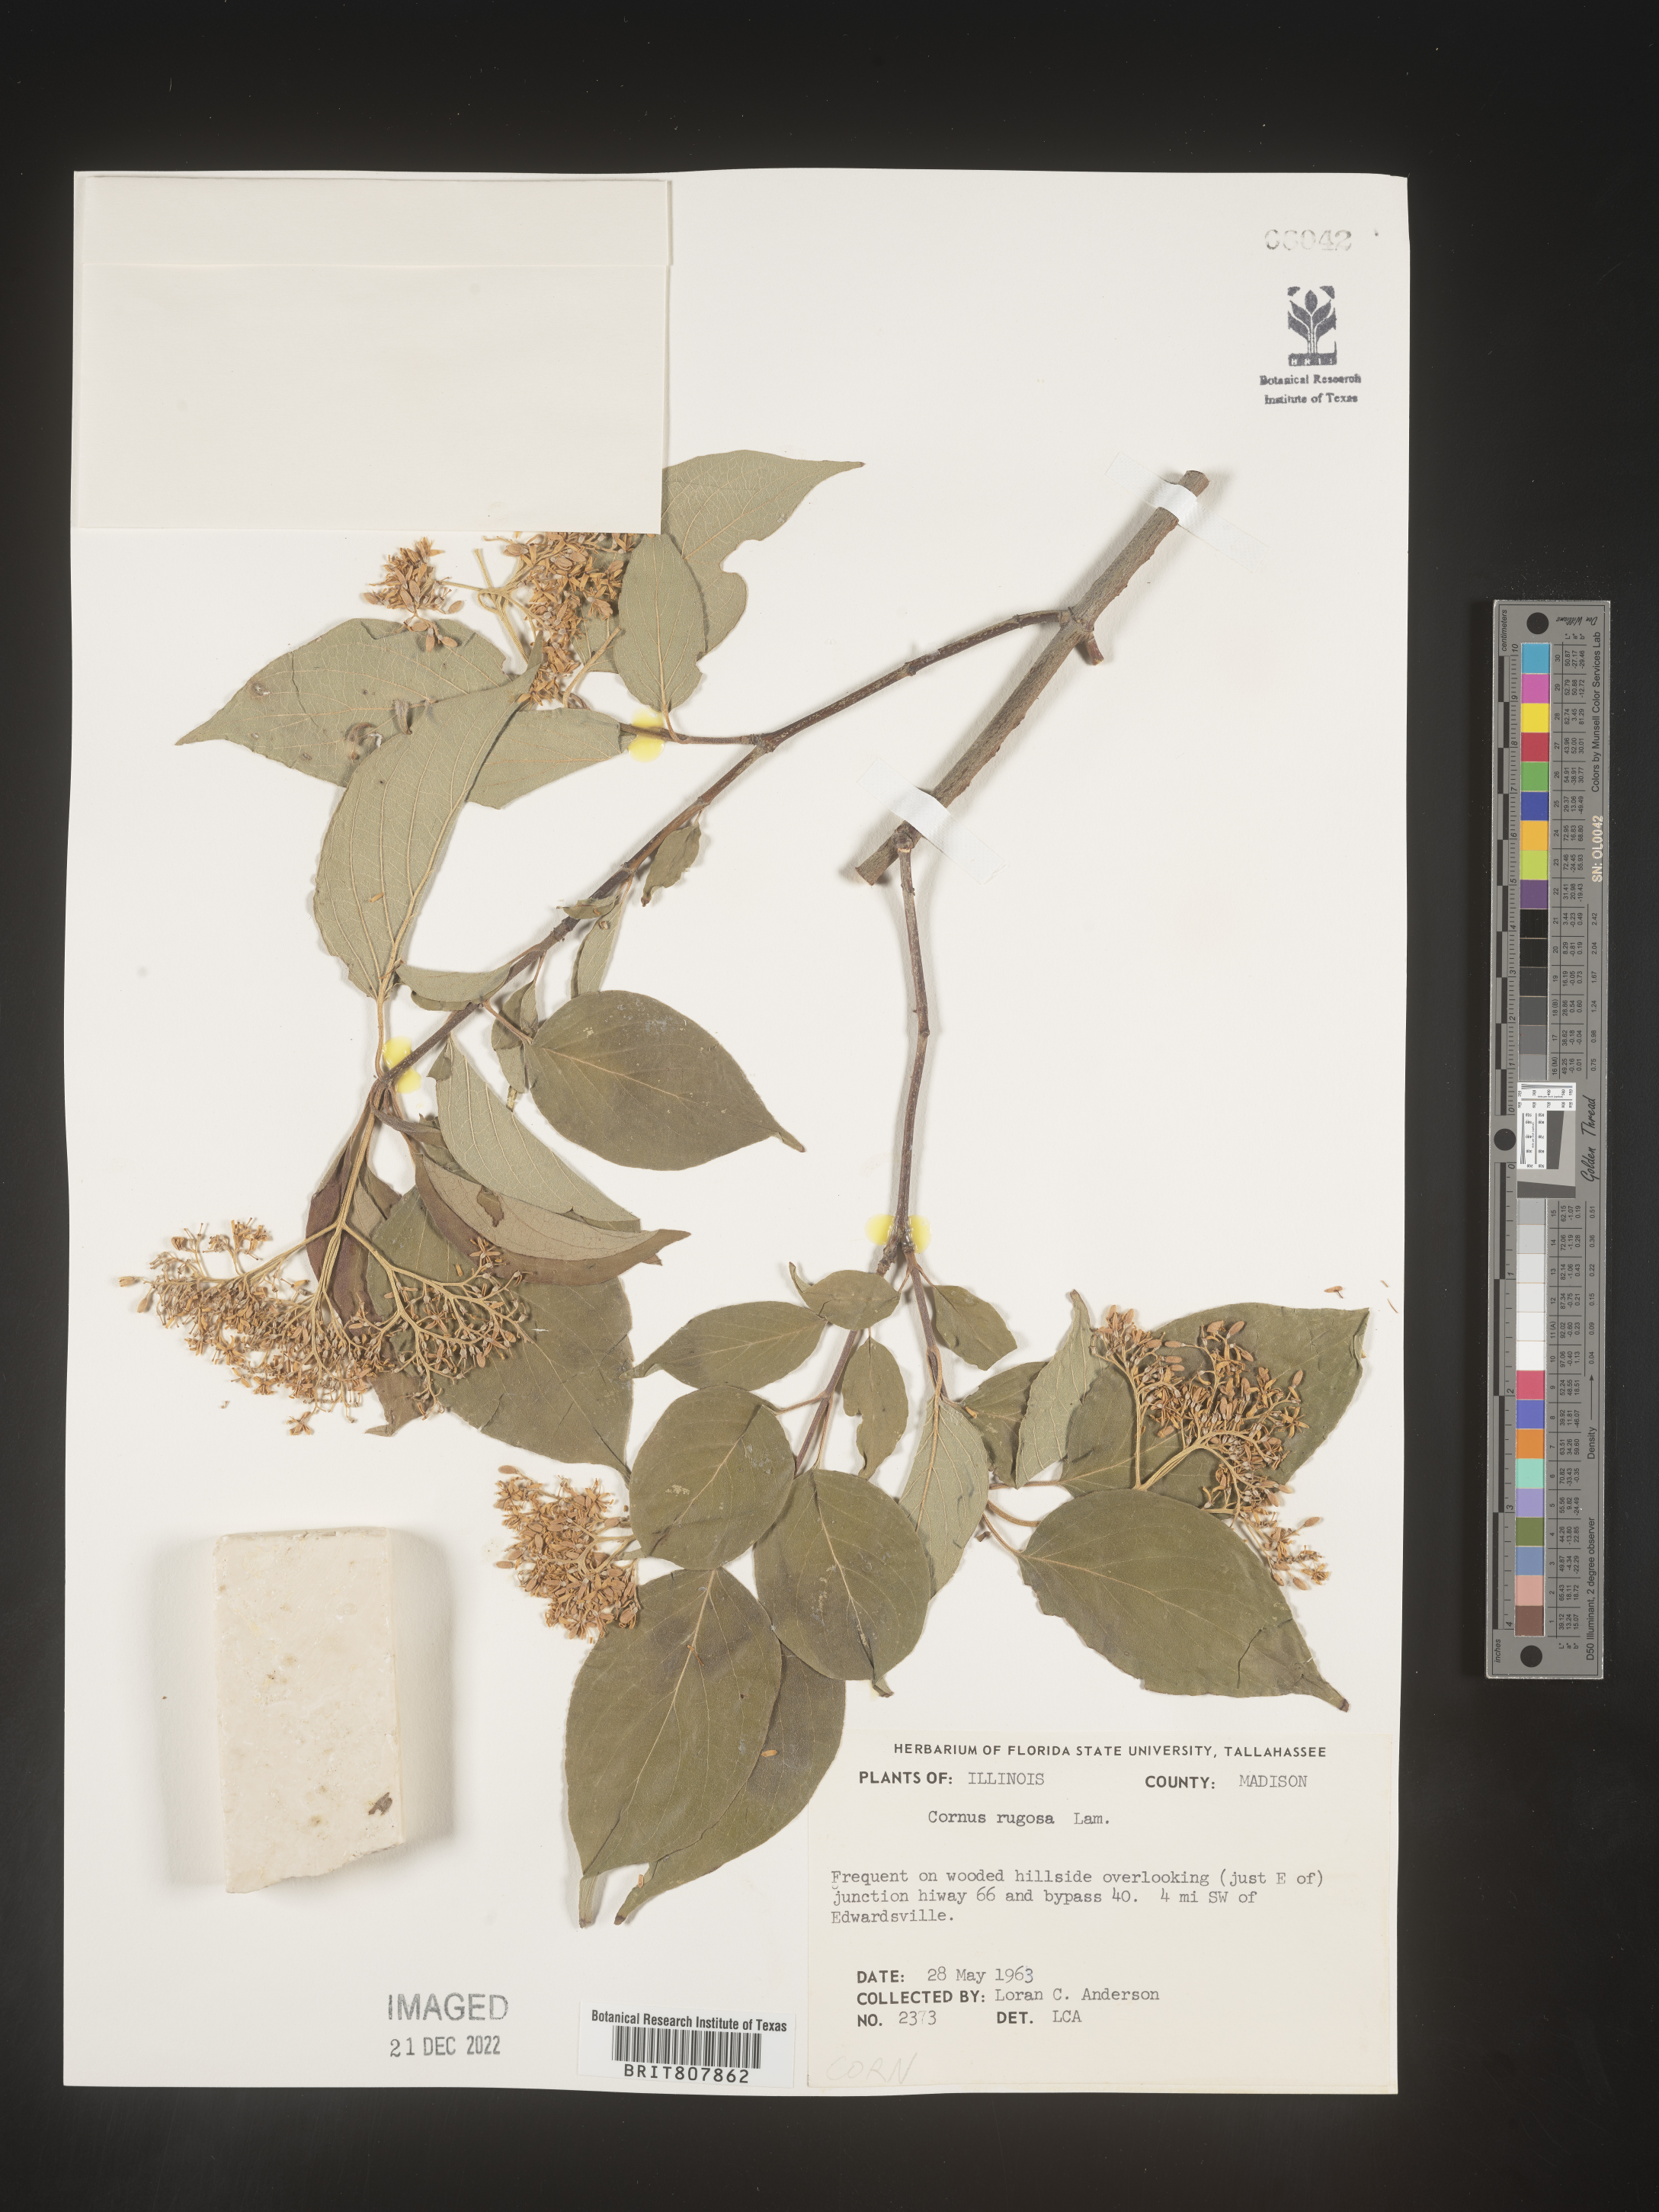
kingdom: Plantae
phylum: Tracheophyta
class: Magnoliopsida
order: Cornales
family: Cornaceae
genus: Cornus
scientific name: Cornus rugosa
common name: Round-leaf dogwood
